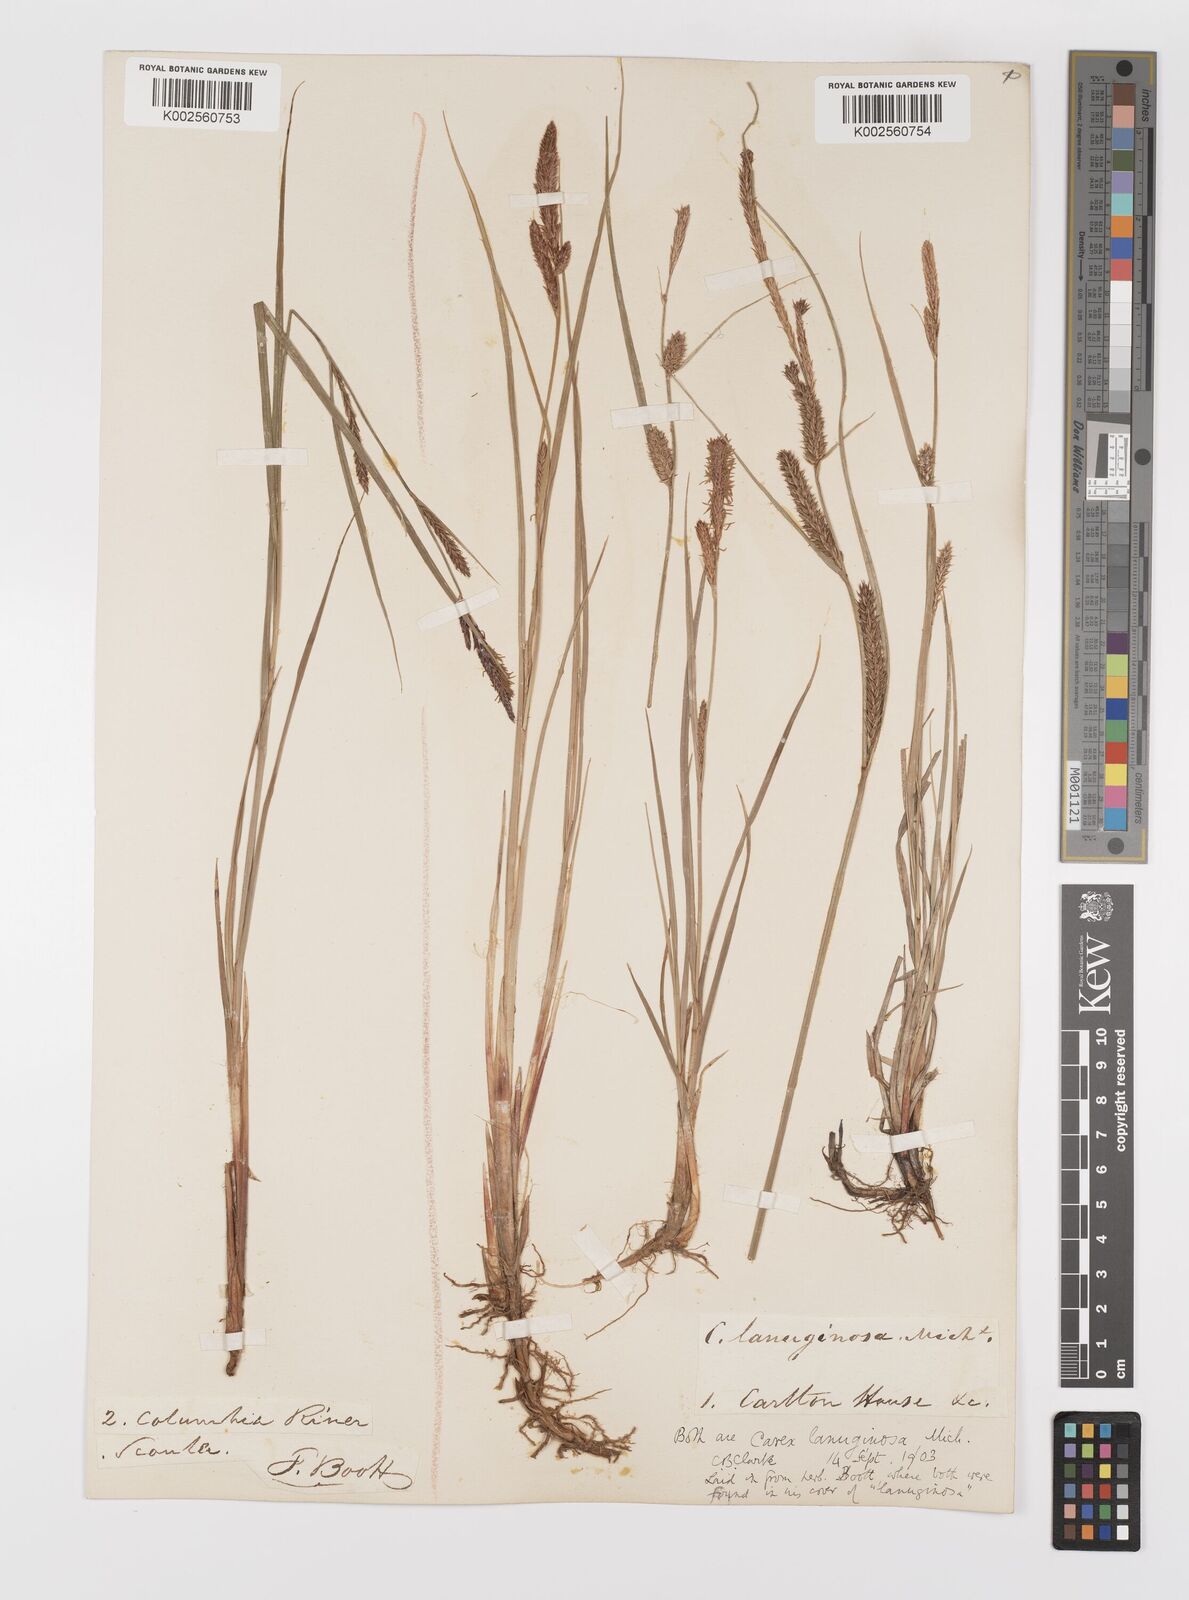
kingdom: Plantae
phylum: Tracheophyta
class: Liliopsida
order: Poales
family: Cyperaceae
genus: Carex
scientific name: Carex lasiocarpa
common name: Slender sedge
